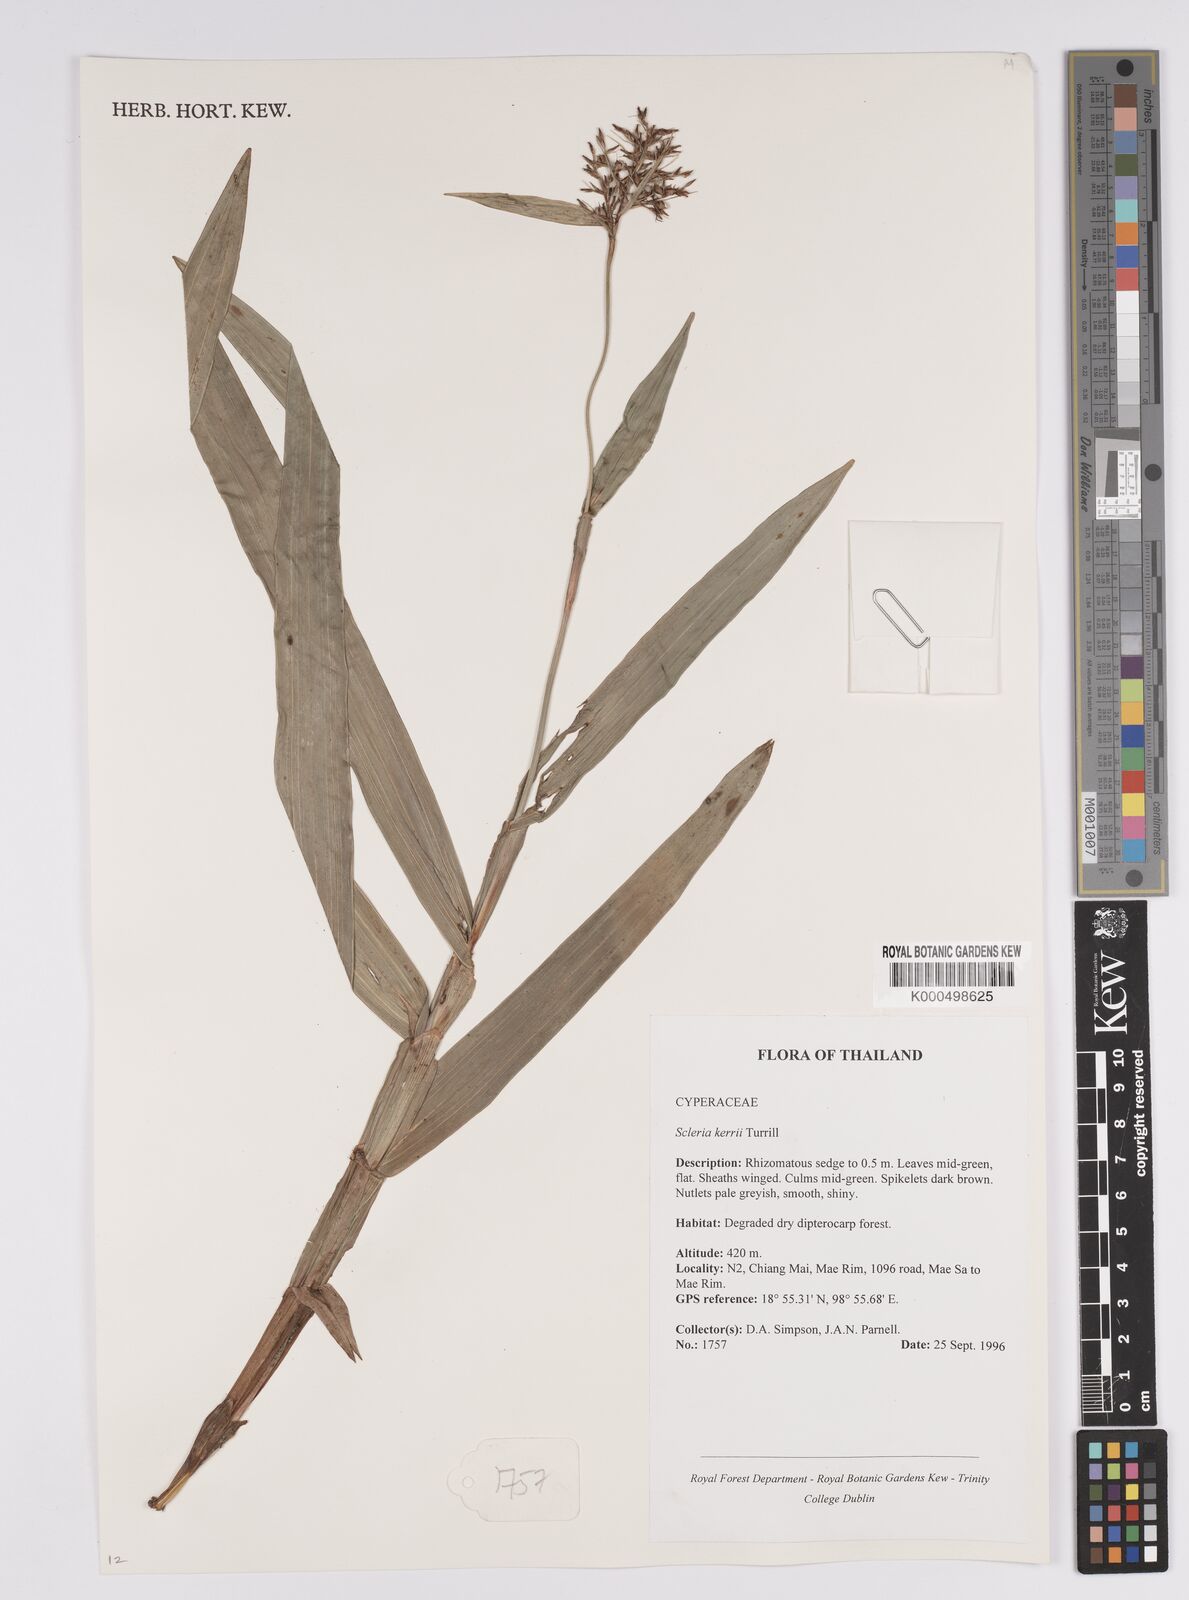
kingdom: Plantae
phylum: Tracheophyta
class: Liliopsida
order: Poales
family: Cyperaceae
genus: Scleria
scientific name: Scleria kerrii
